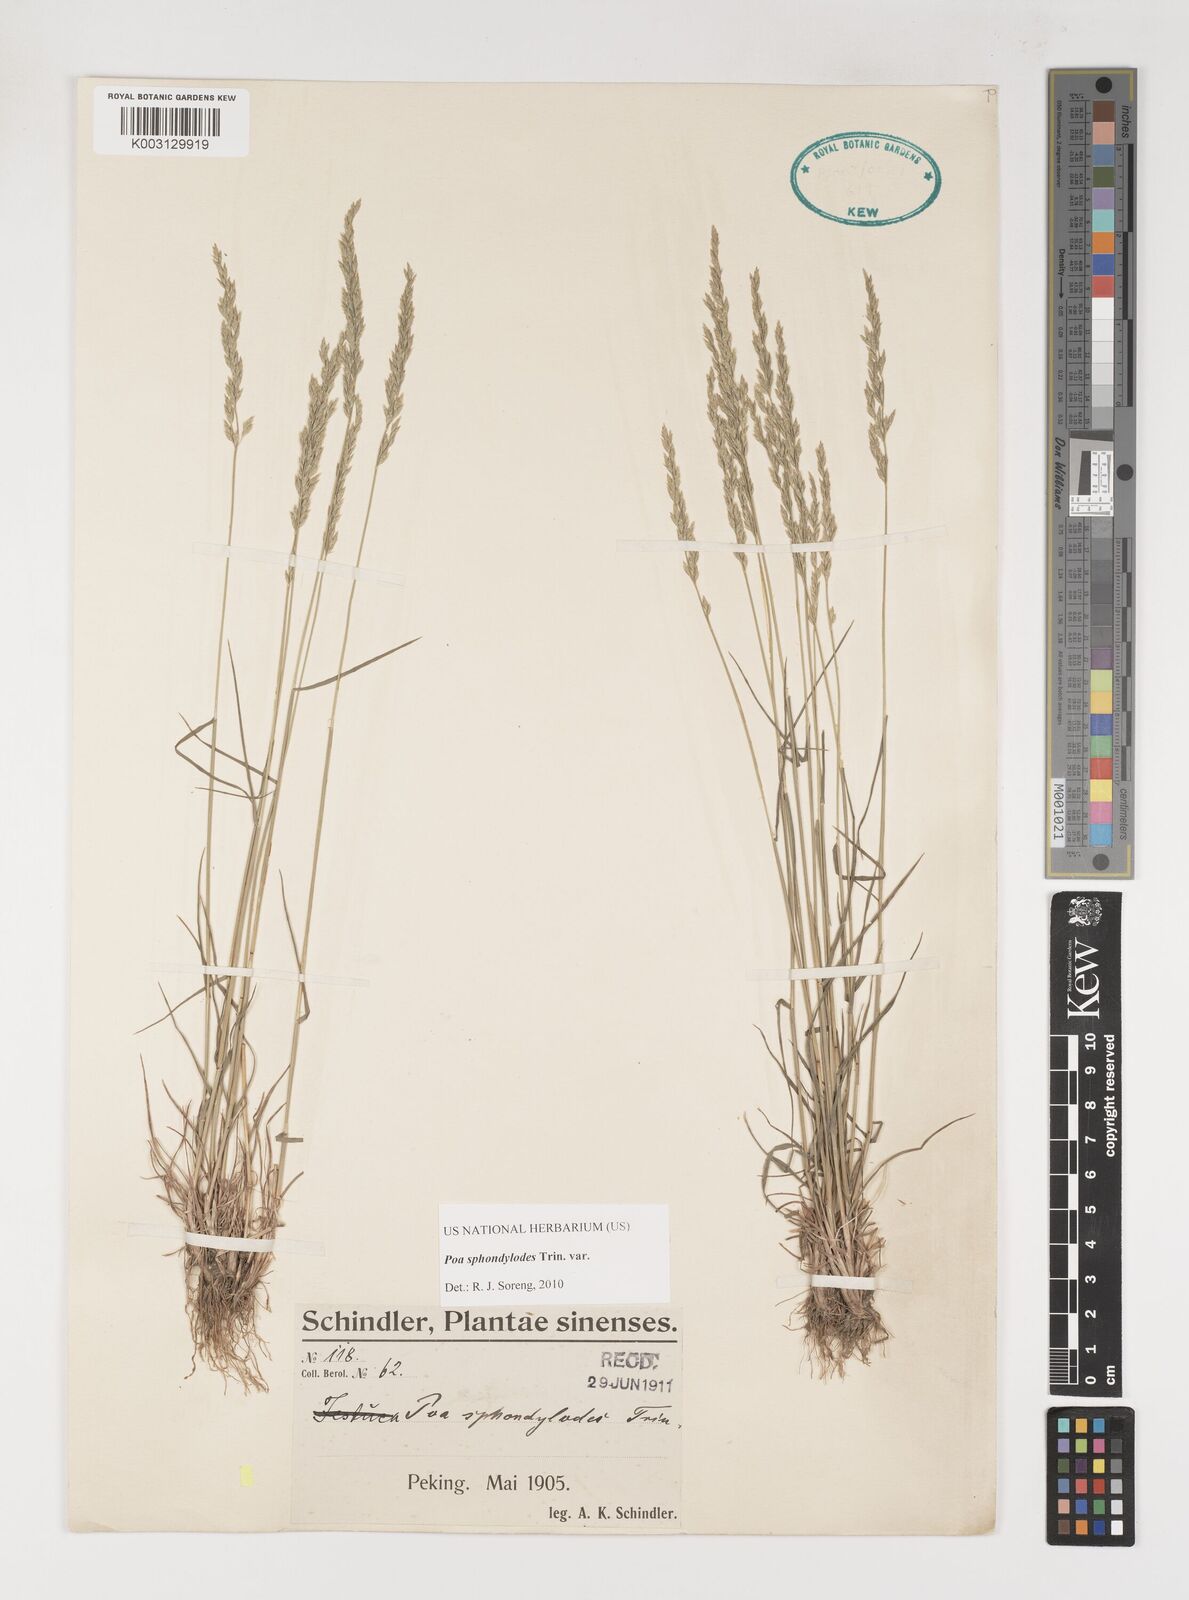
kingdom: Plantae
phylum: Tracheophyta
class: Liliopsida
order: Poales
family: Poaceae
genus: Poa
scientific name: Poa sphondylodes
